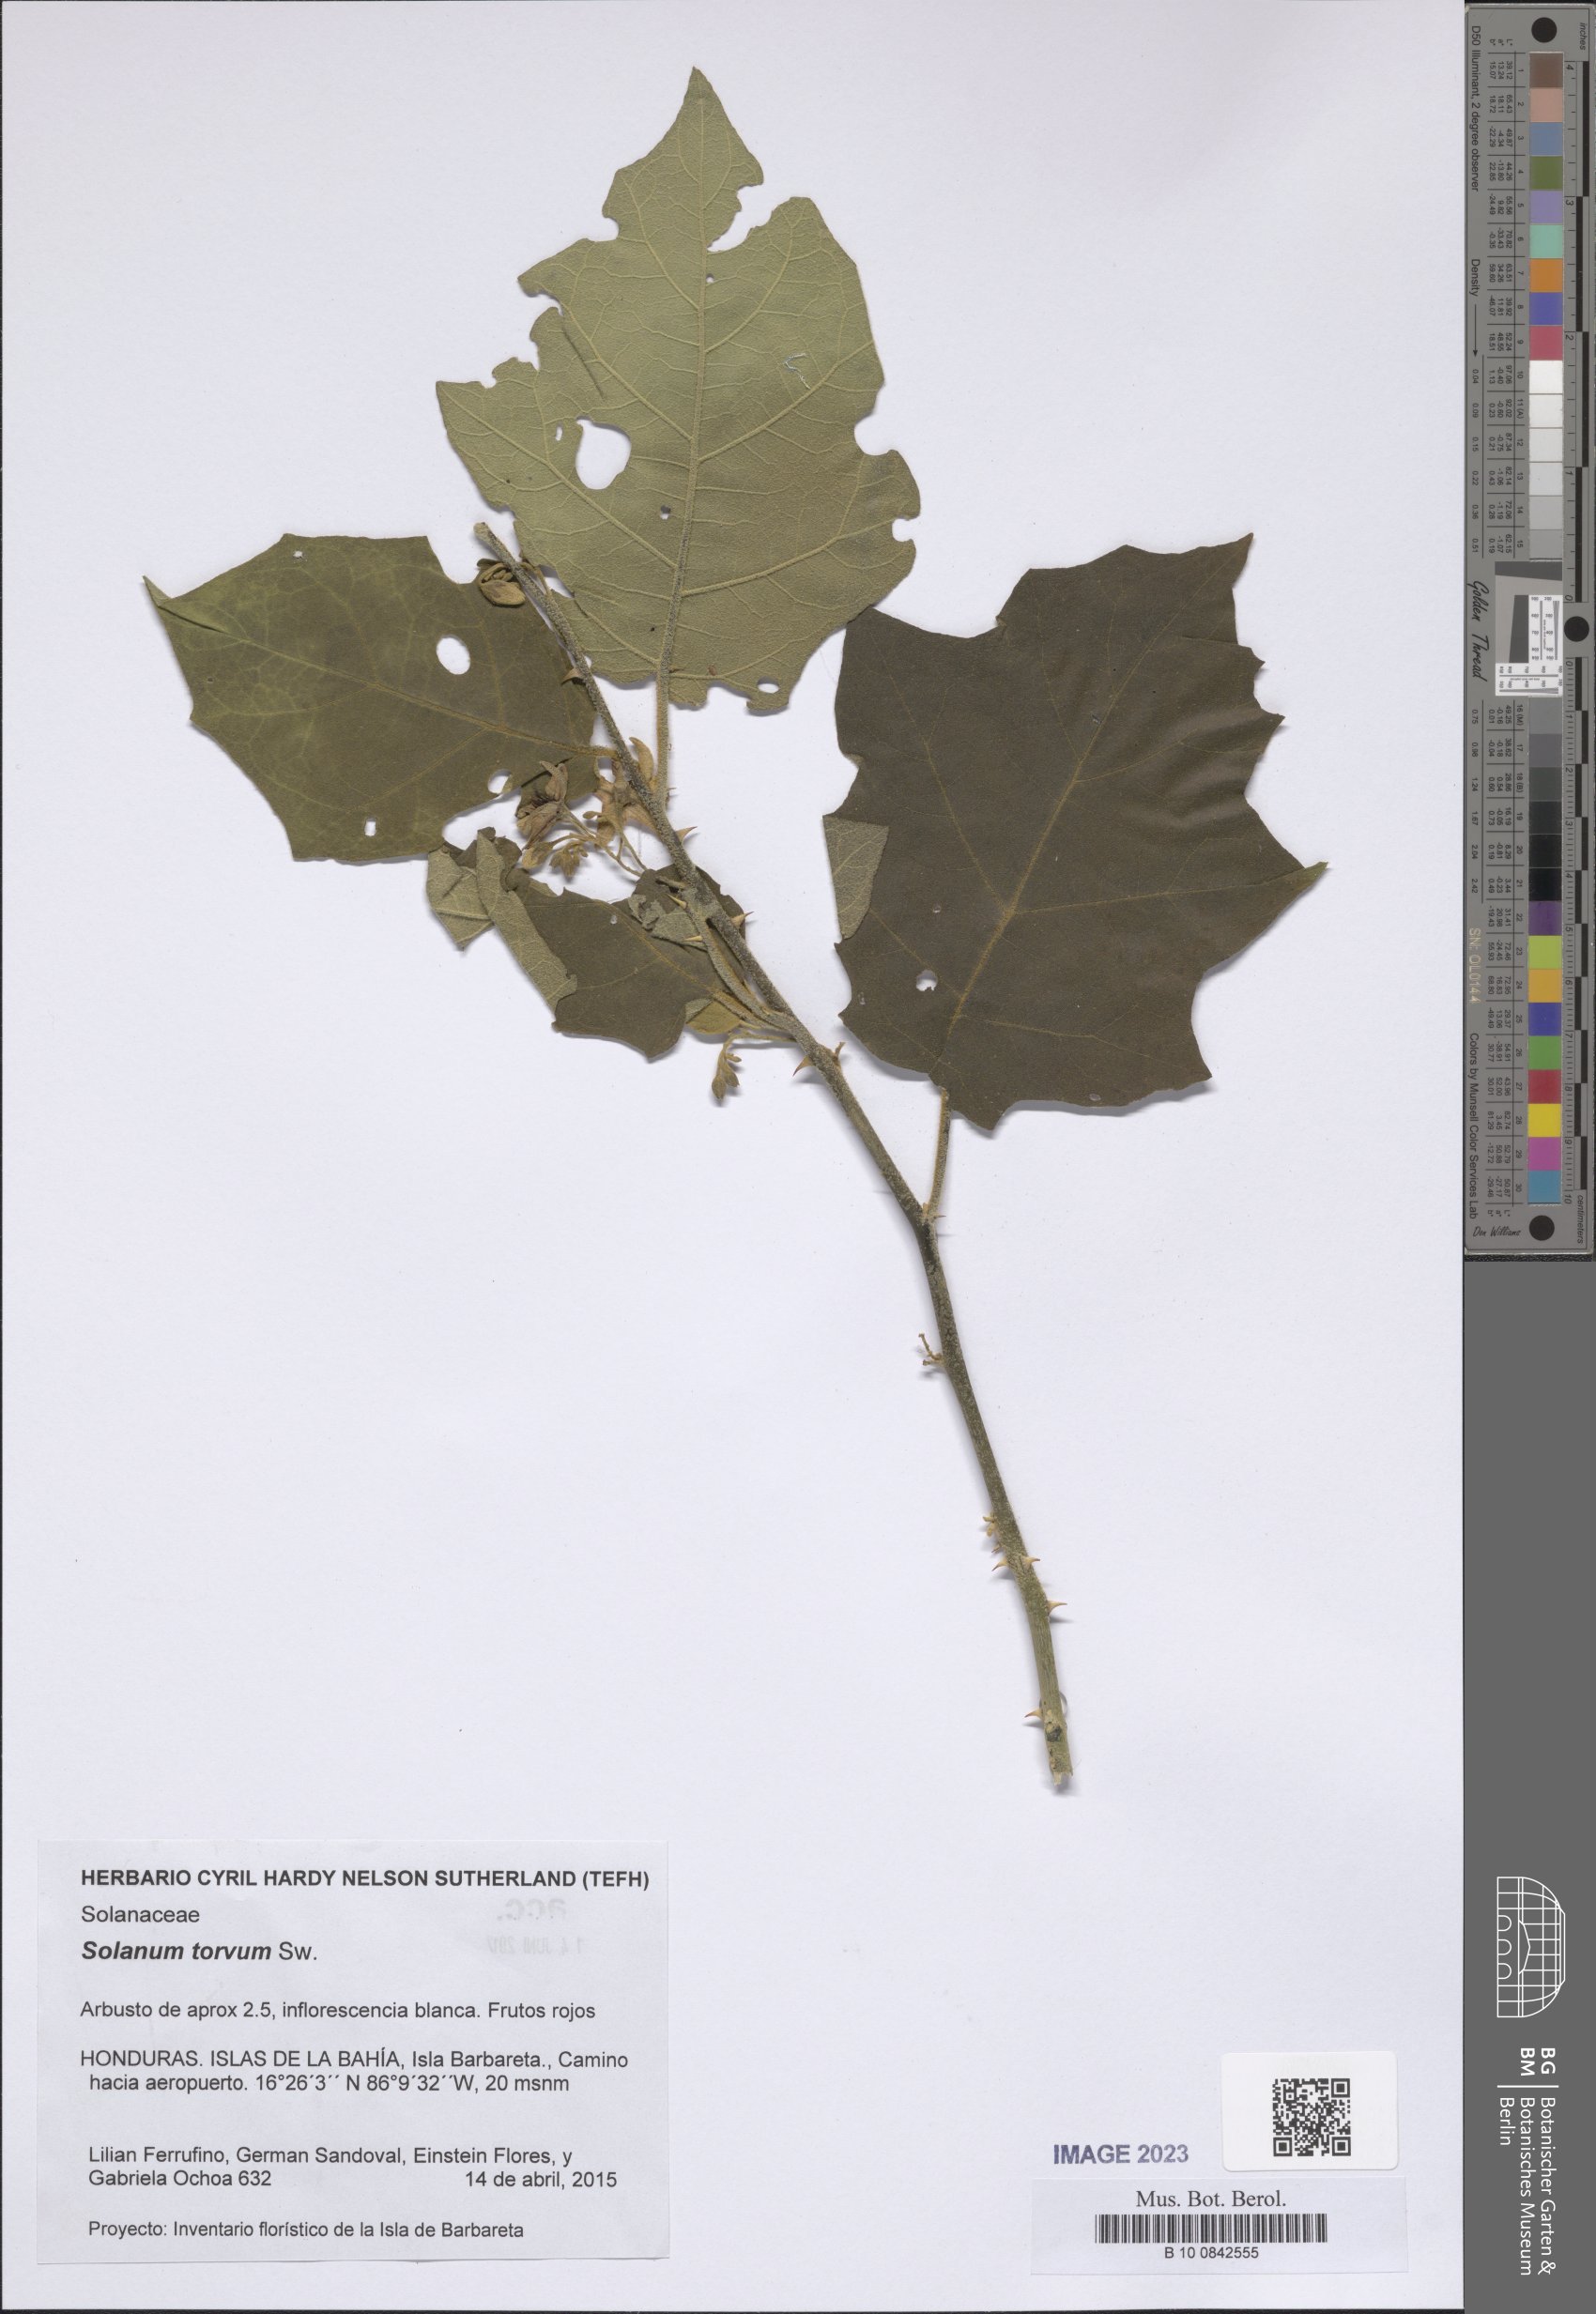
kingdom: Plantae
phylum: Tracheophyta
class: Magnoliopsida
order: Solanales
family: Solanaceae
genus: Solanum
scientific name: Solanum torvum
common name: Turkey berry
